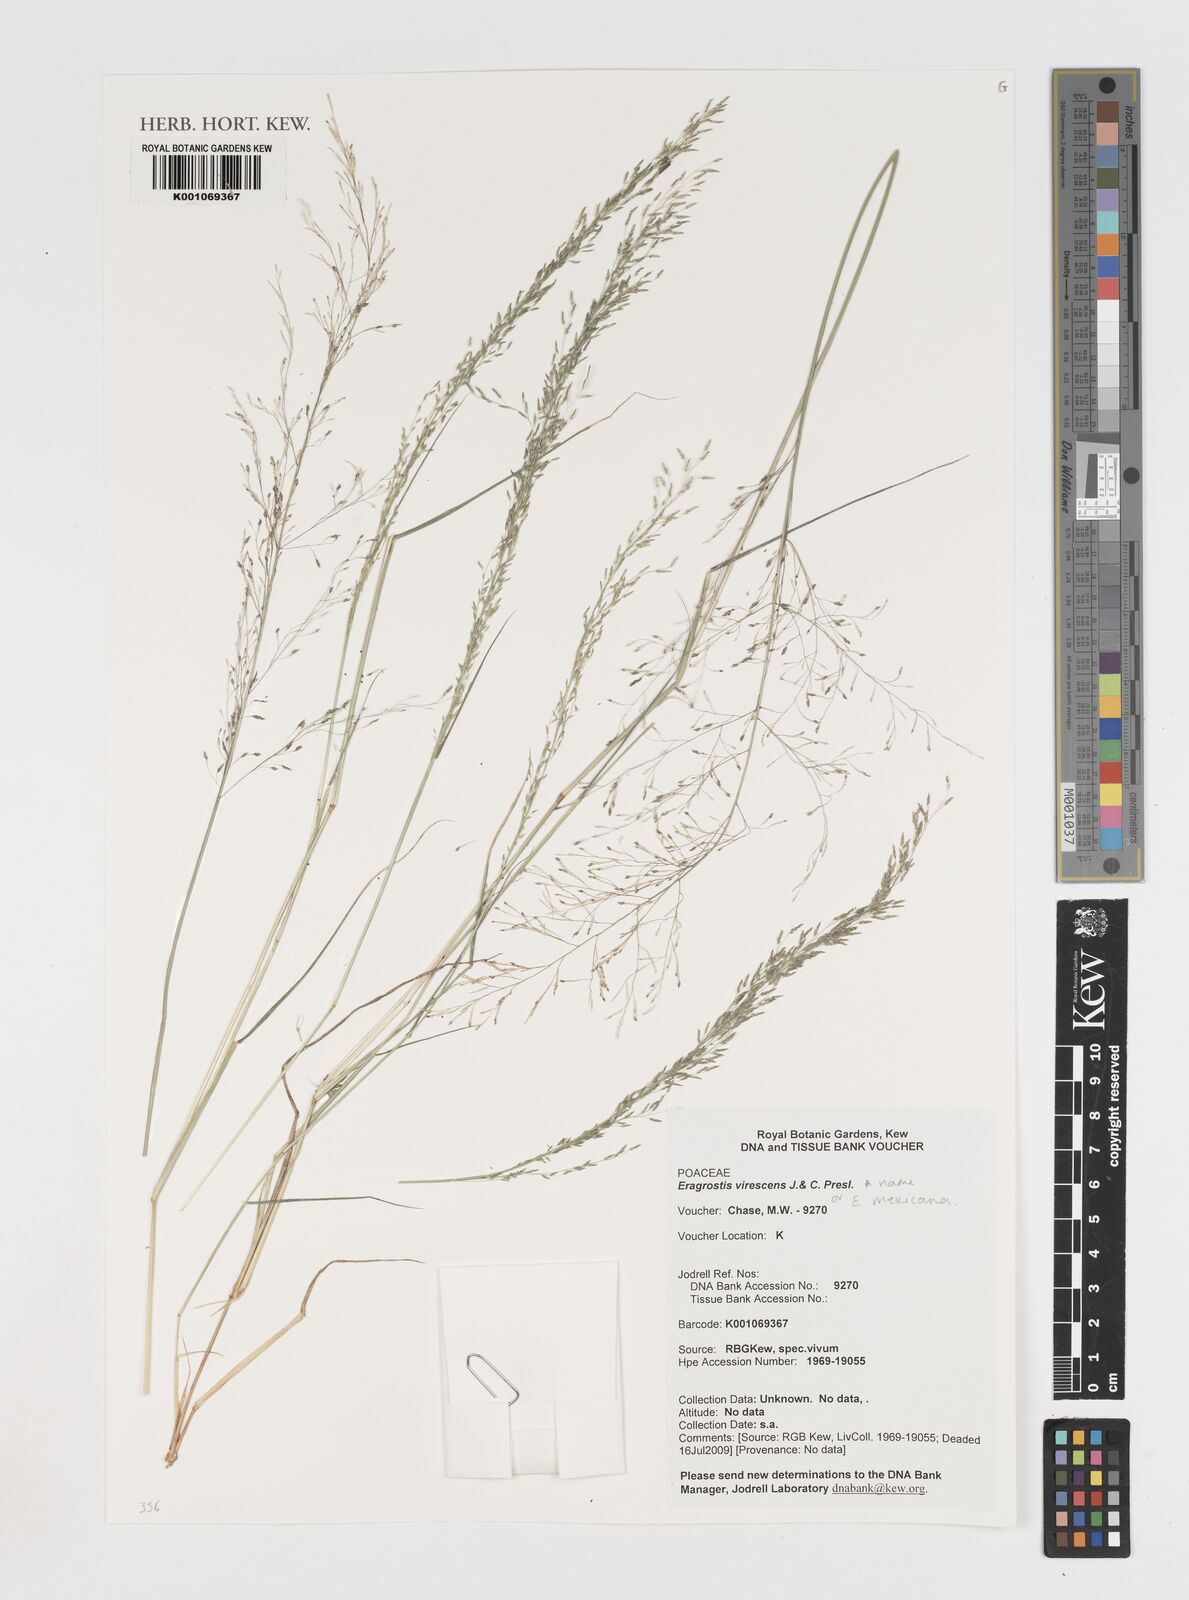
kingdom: Plantae
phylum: Tracheophyta
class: Liliopsida
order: Poales
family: Poaceae
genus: Eragrostis
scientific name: Eragrostis virescens
